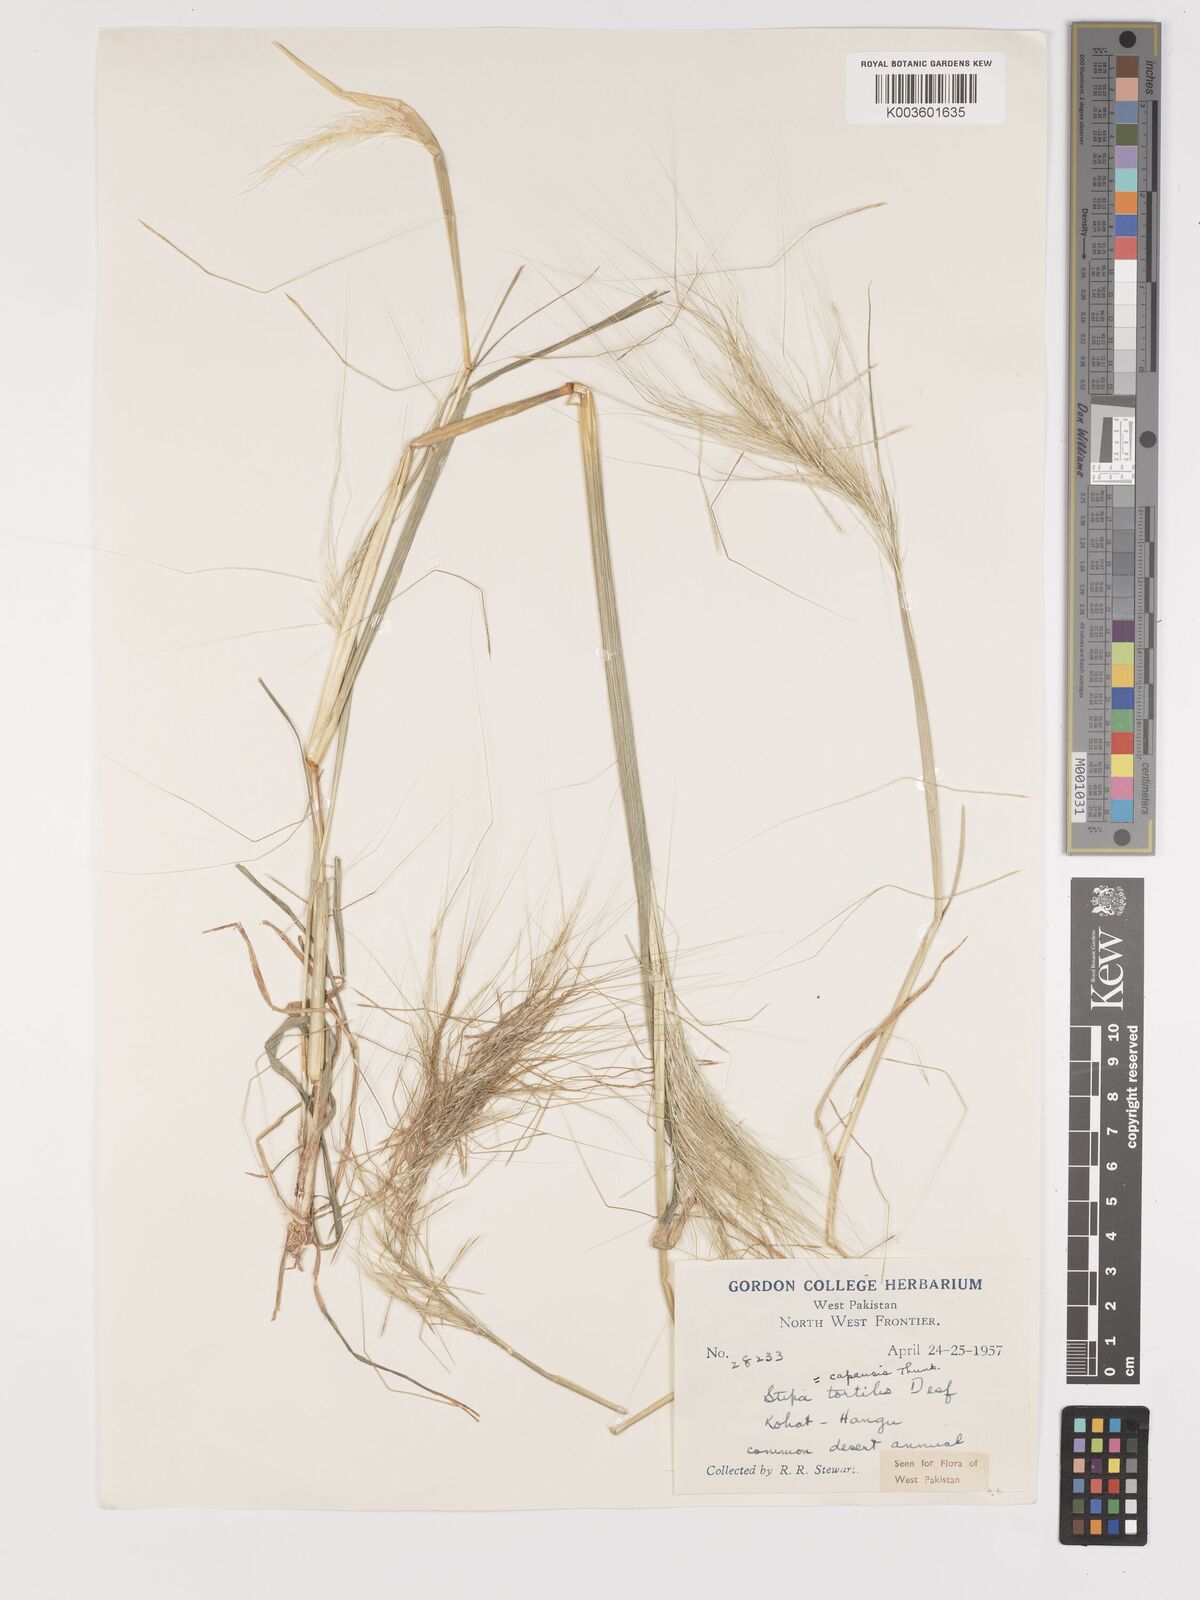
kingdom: Plantae
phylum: Tracheophyta
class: Liliopsida
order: Poales
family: Poaceae
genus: Stipellula
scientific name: Stipellula capensis
